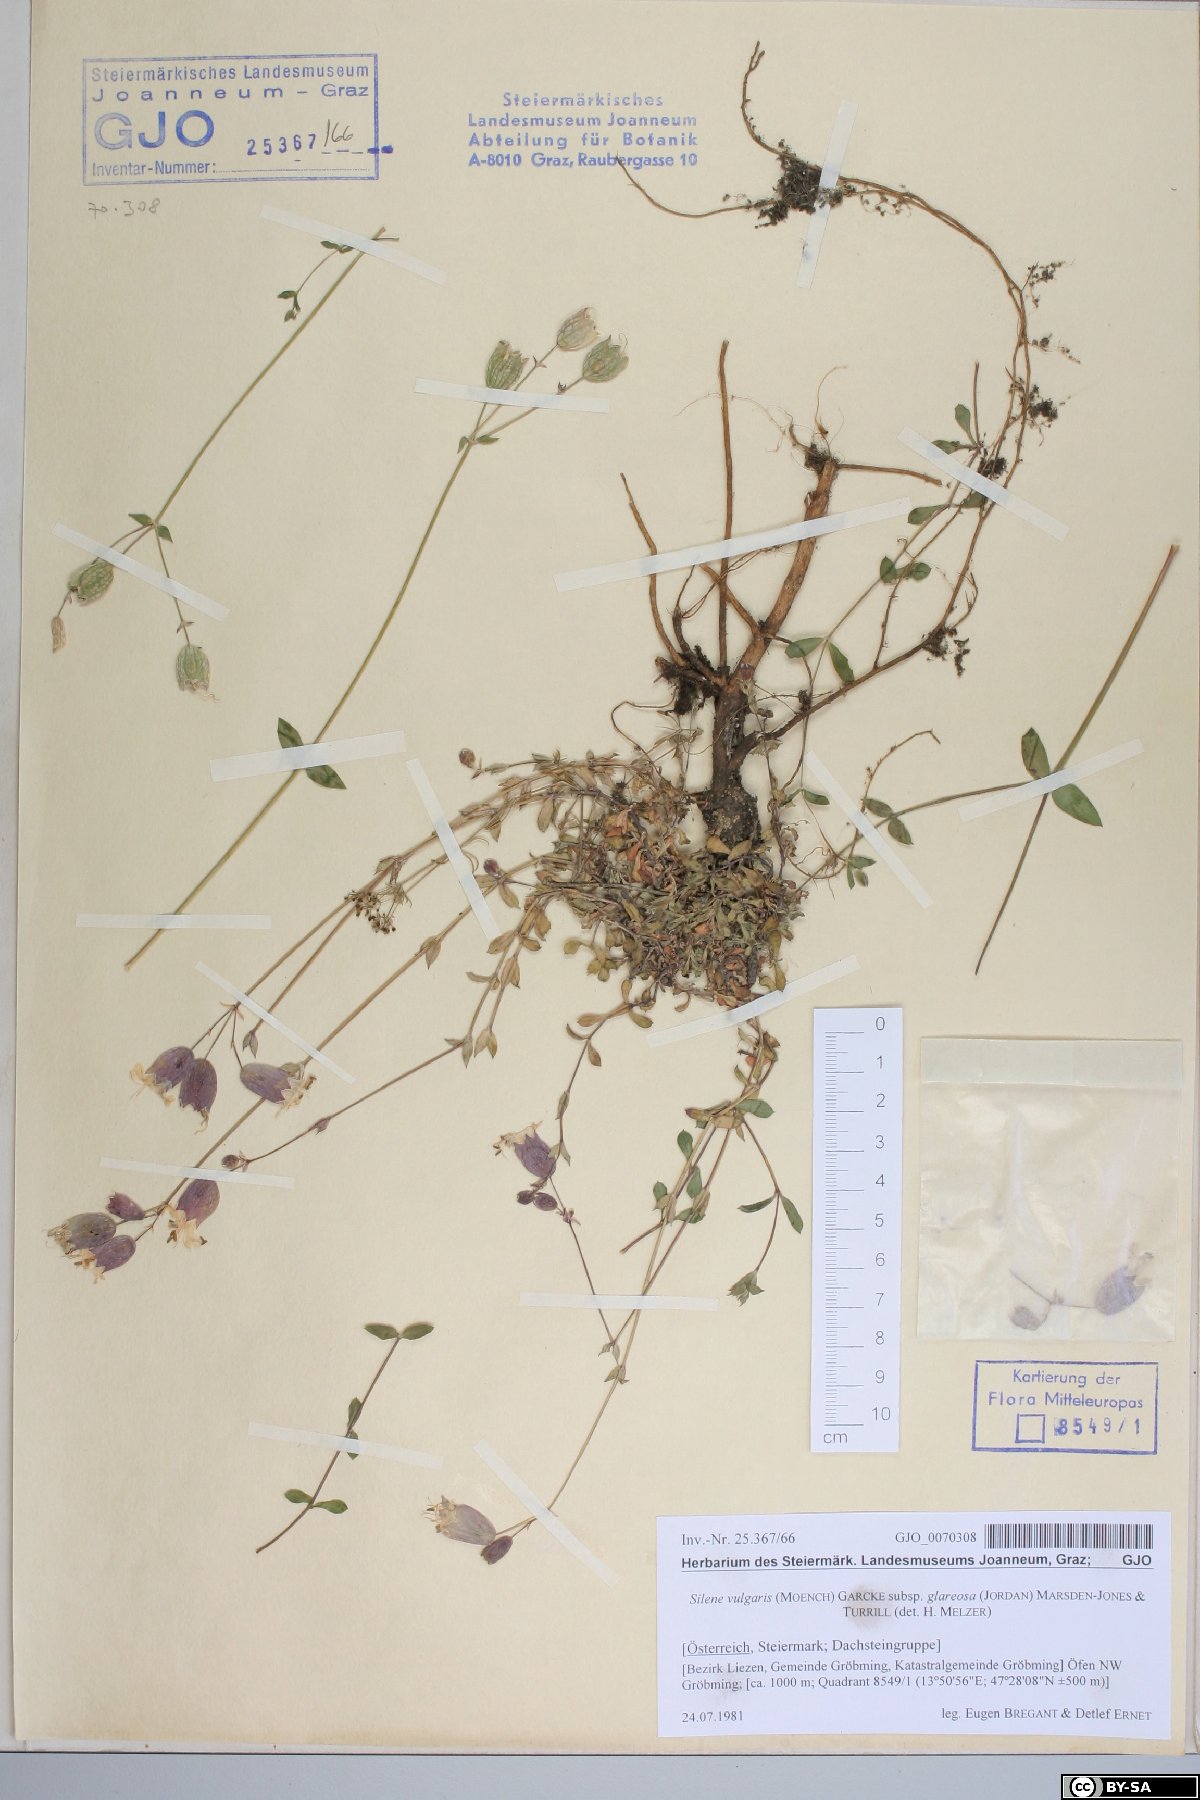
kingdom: Plantae
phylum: Tracheophyta
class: Magnoliopsida
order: Caryophyllales
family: Caryophyllaceae
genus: Silene
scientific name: Silene glareosa
